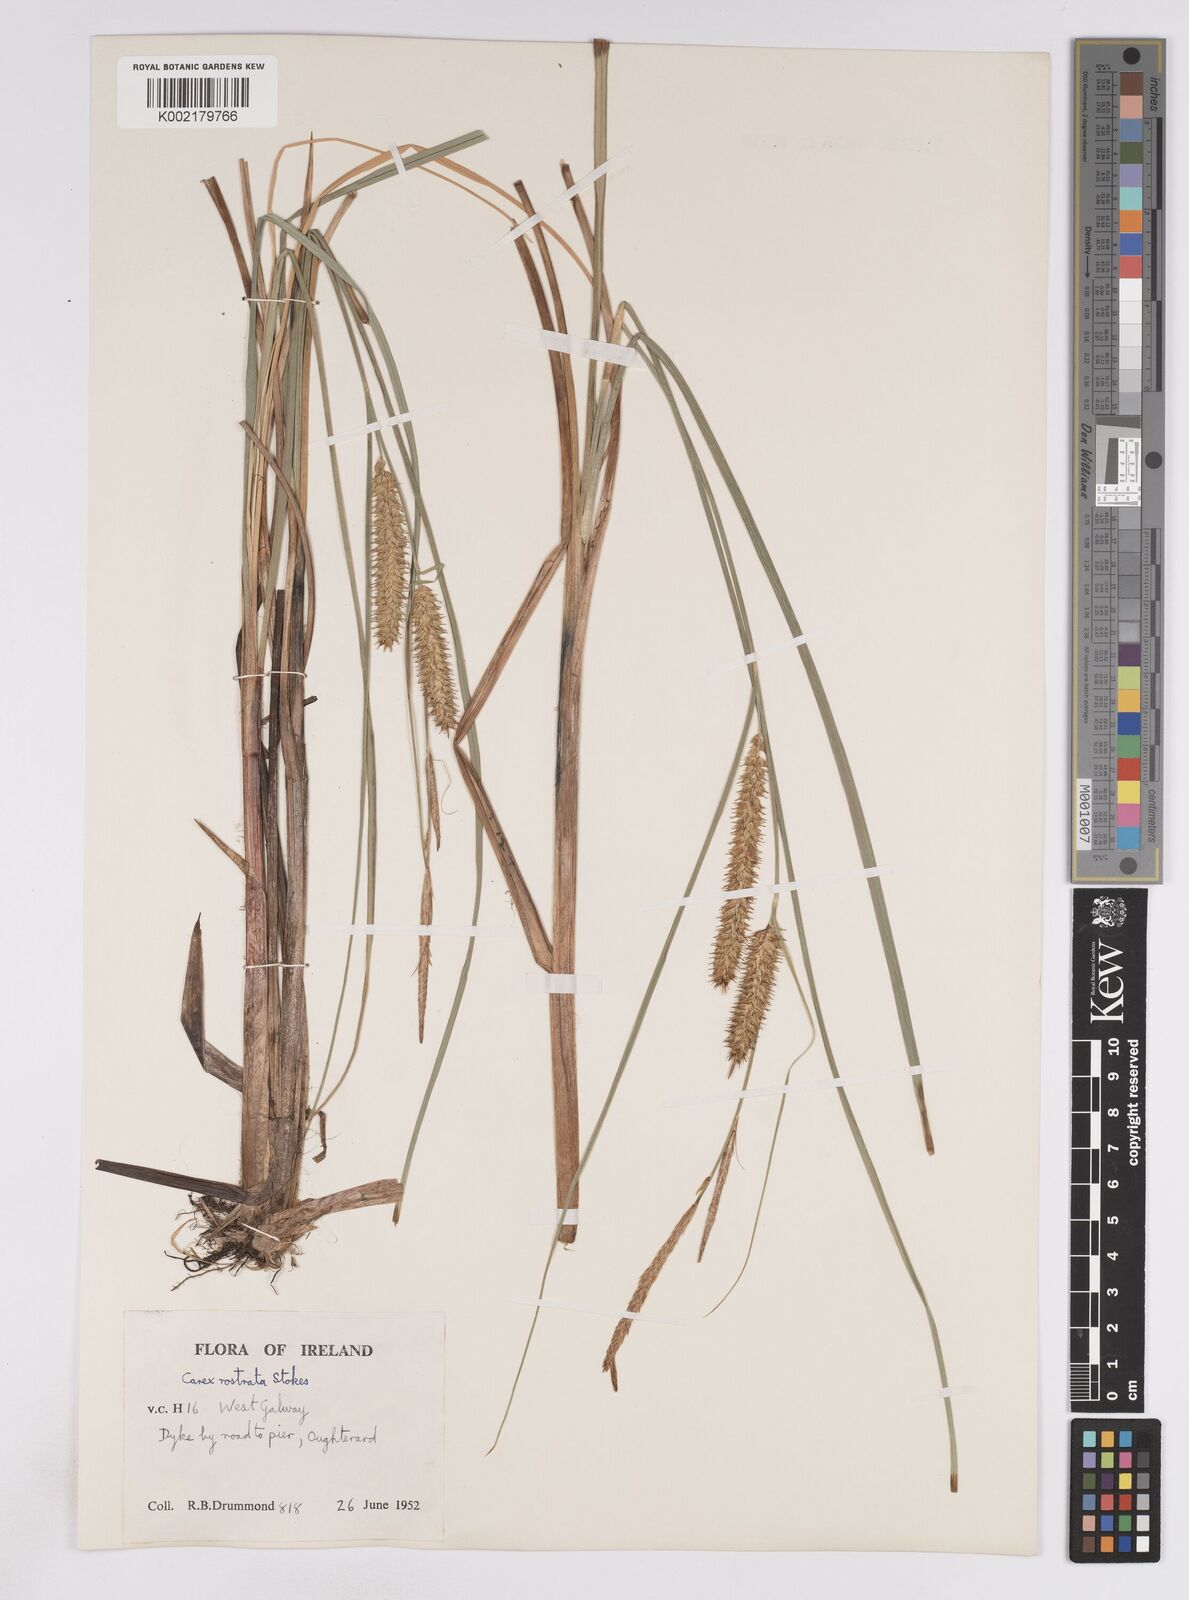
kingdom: Plantae
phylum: Tracheophyta
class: Liliopsida
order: Poales
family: Cyperaceae
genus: Carex
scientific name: Carex rostrata
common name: Bottle sedge
